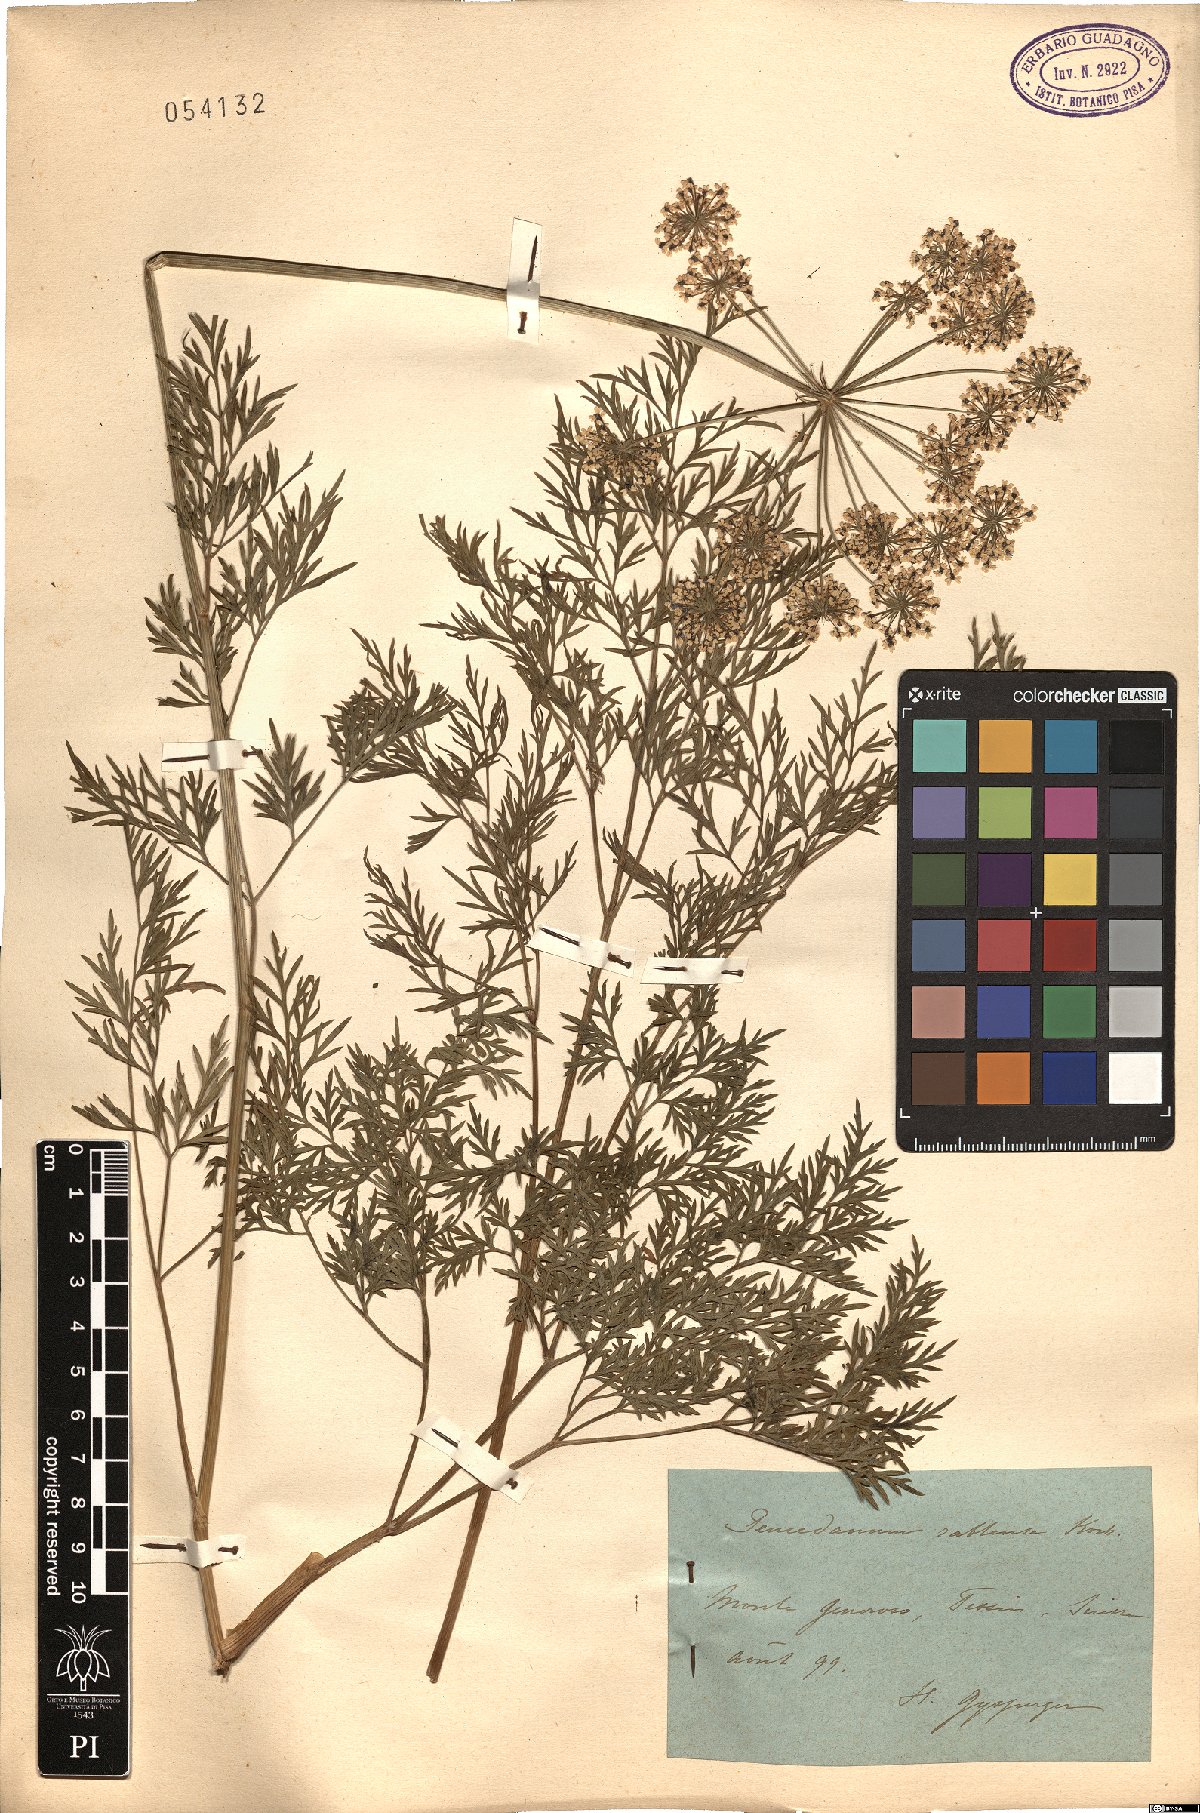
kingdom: Plantae
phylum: Tracheophyta
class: Magnoliopsida
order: Apiales
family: Apiaceae
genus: Peucedanum
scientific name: Peucedanum rablense
